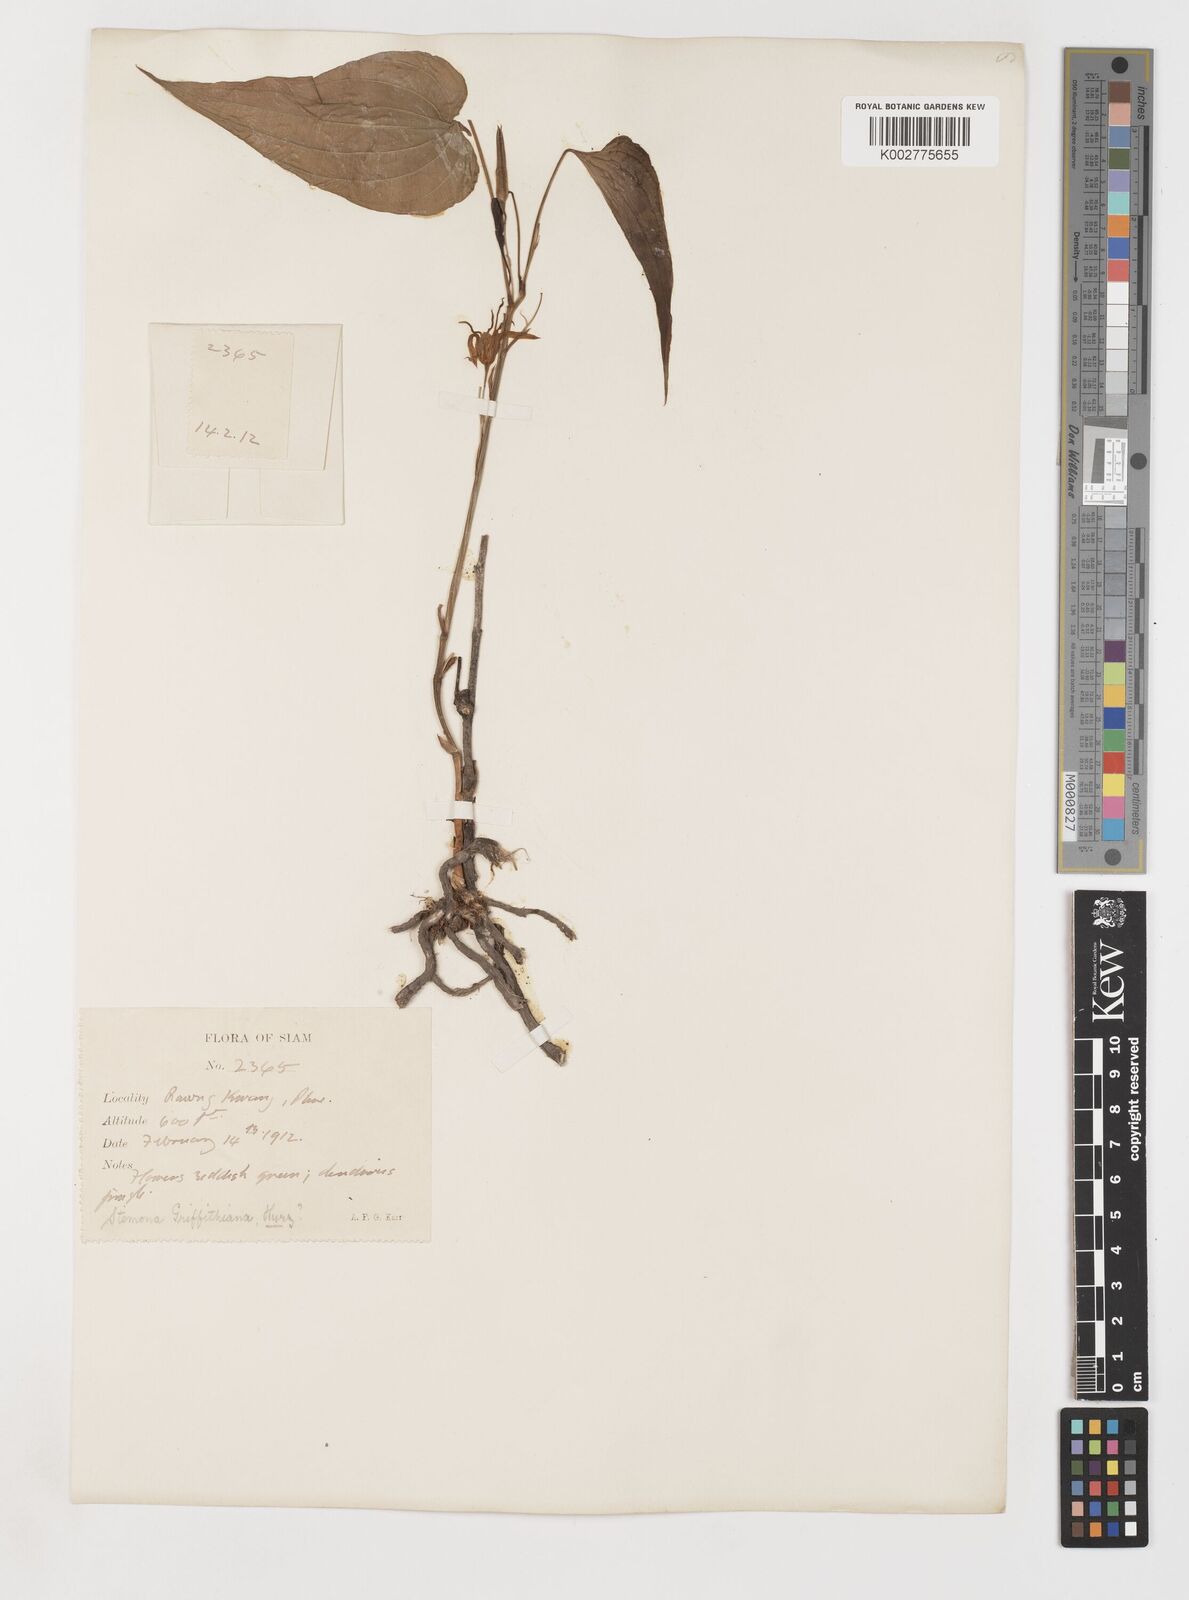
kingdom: Plantae
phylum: Tracheophyta
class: Liliopsida
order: Pandanales
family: Stemonaceae
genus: Stemona
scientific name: Stemona griffithiana
